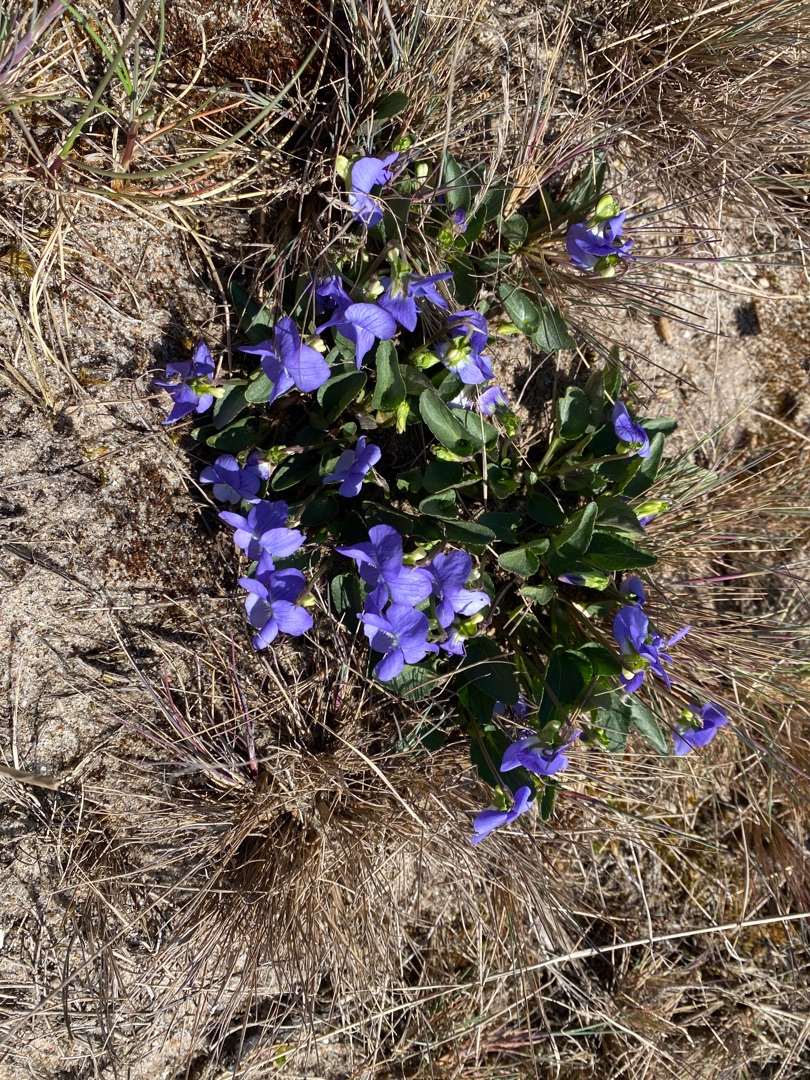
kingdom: Plantae
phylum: Tracheophyta
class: Magnoliopsida
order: Malpighiales
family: Violaceae
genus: Viola
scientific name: Viola canina
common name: Hunde-viol
